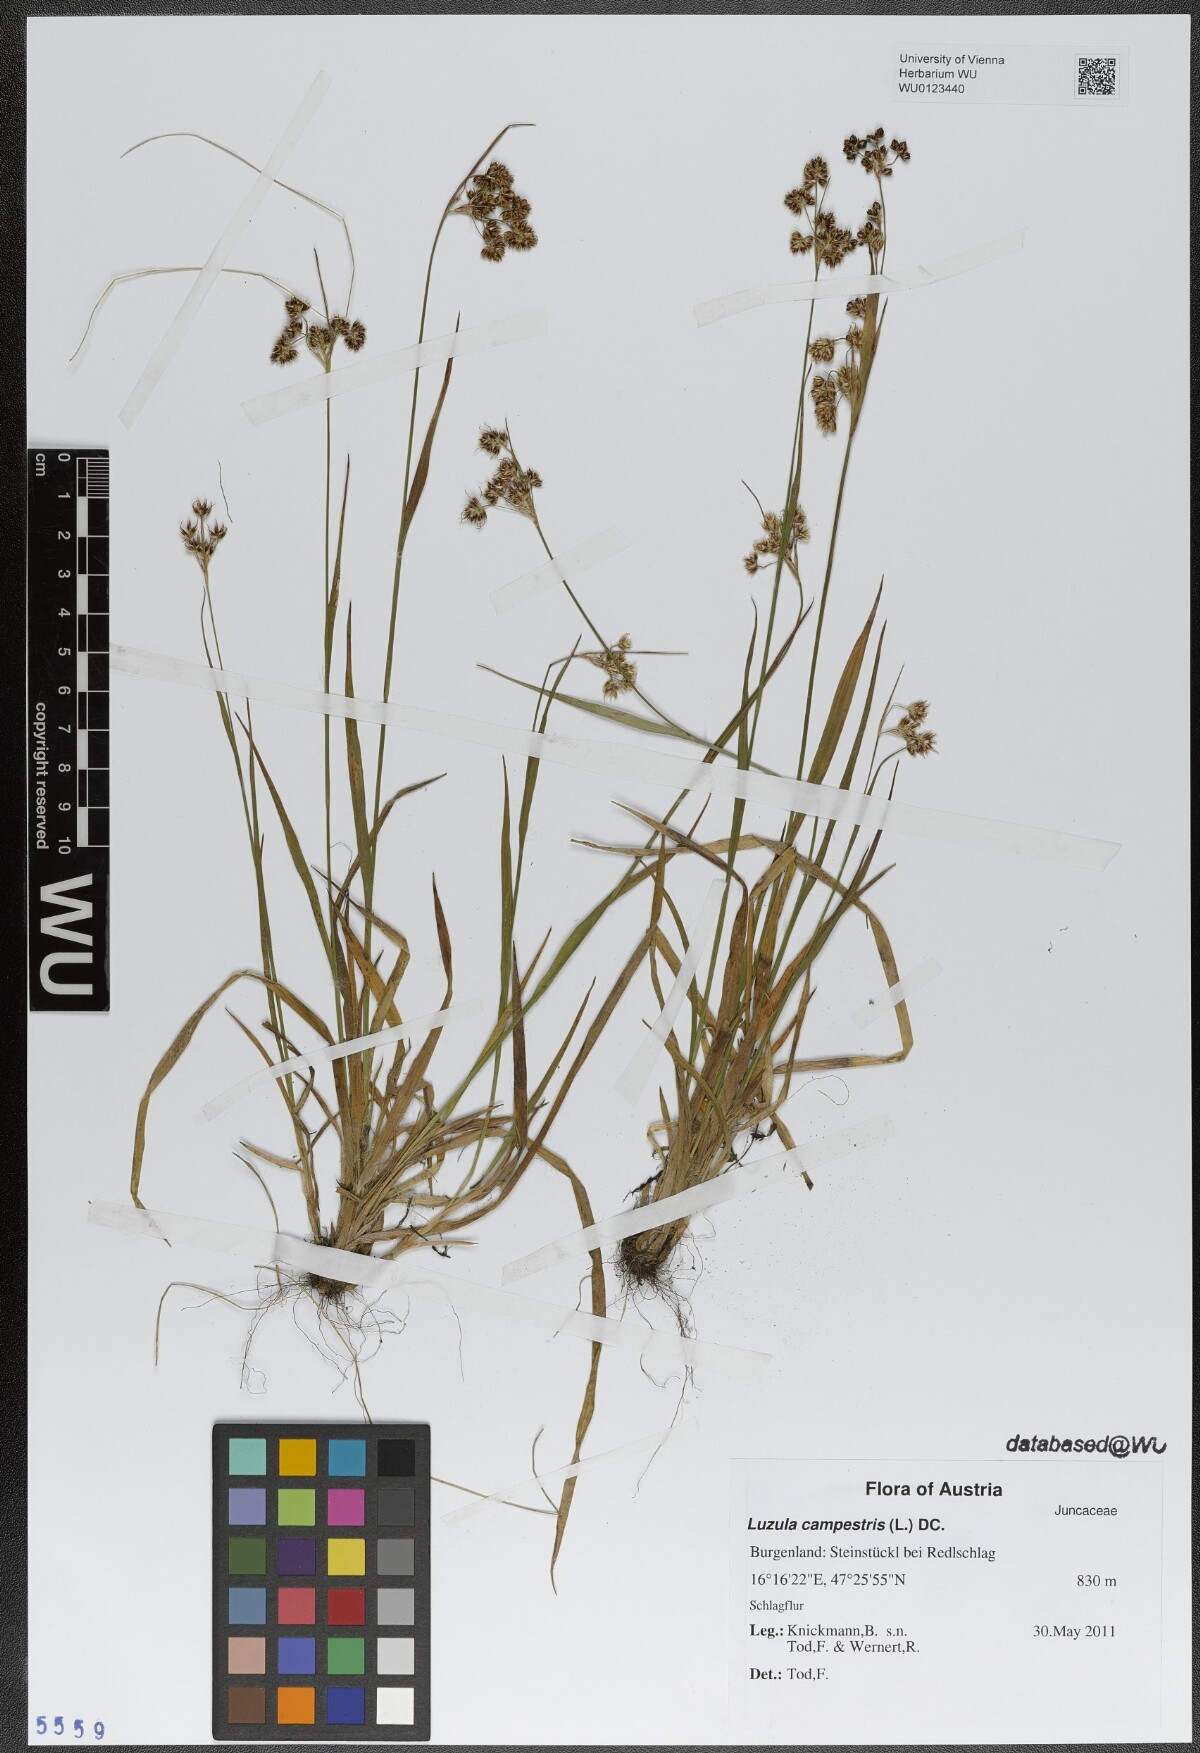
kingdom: Plantae
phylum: Tracheophyta
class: Liliopsida
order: Poales
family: Juncaceae
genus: Luzula
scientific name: Luzula campestris
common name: Field wood-rush
